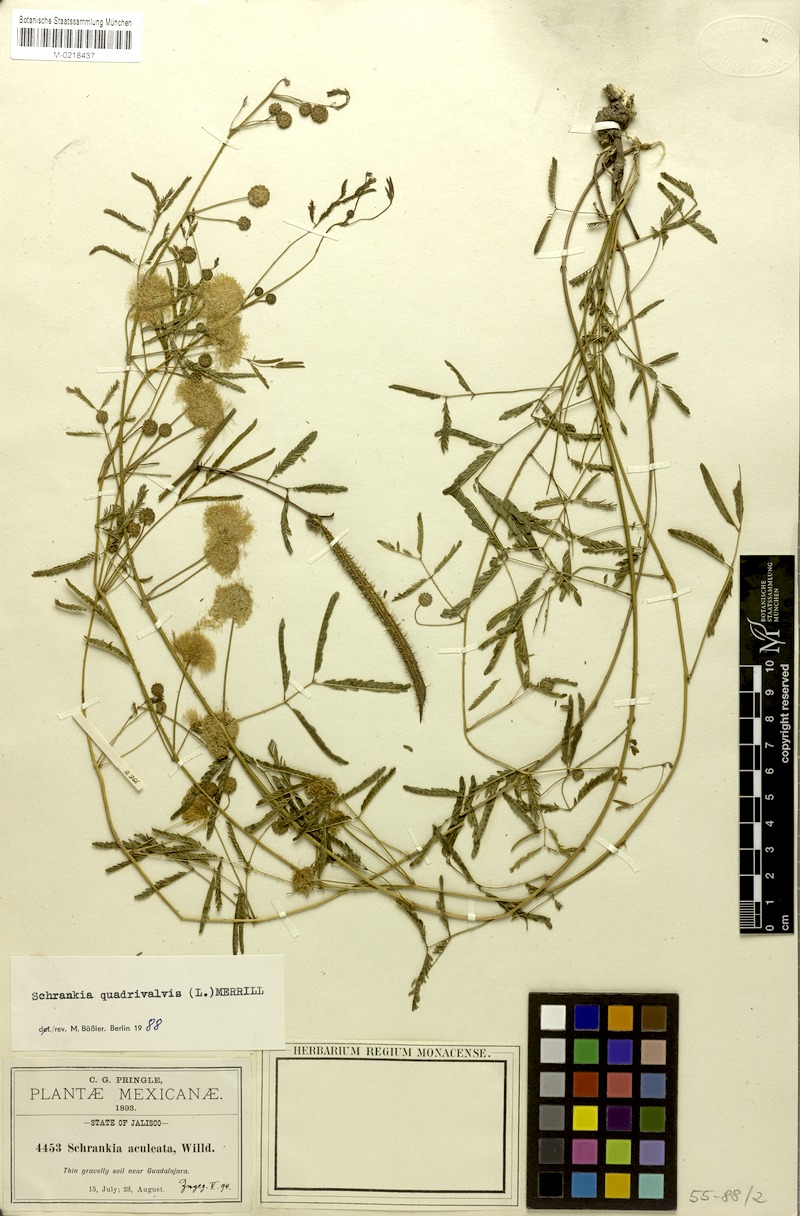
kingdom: Plantae
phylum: Tracheophyta
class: Magnoliopsida
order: Fabales
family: Fabaceae
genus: Mimosa
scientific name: Mimosa quadrivalvis
